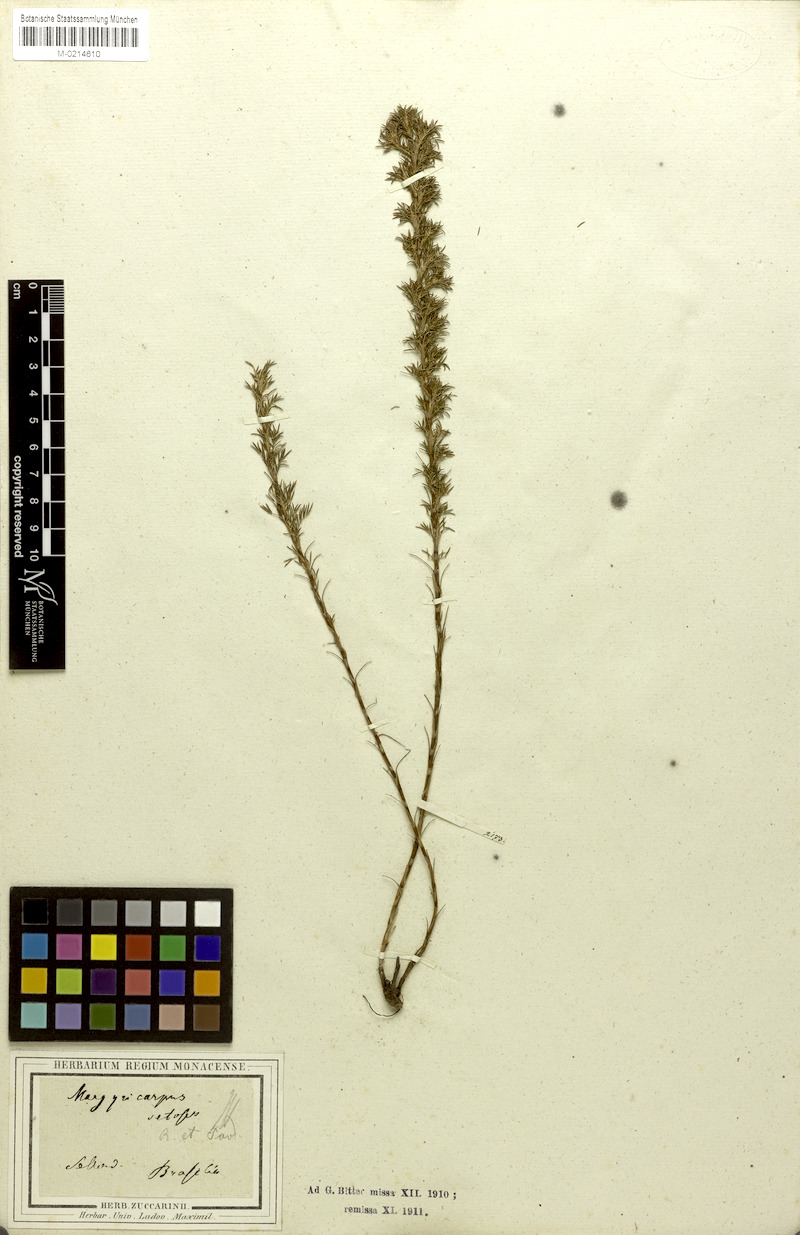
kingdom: Plantae
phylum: Tracheophyta
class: Magnoliopsida
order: Rosales
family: Rosaceae
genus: Margyricarpus
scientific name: Margyricarpus pinnatus
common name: Pearlfruit
